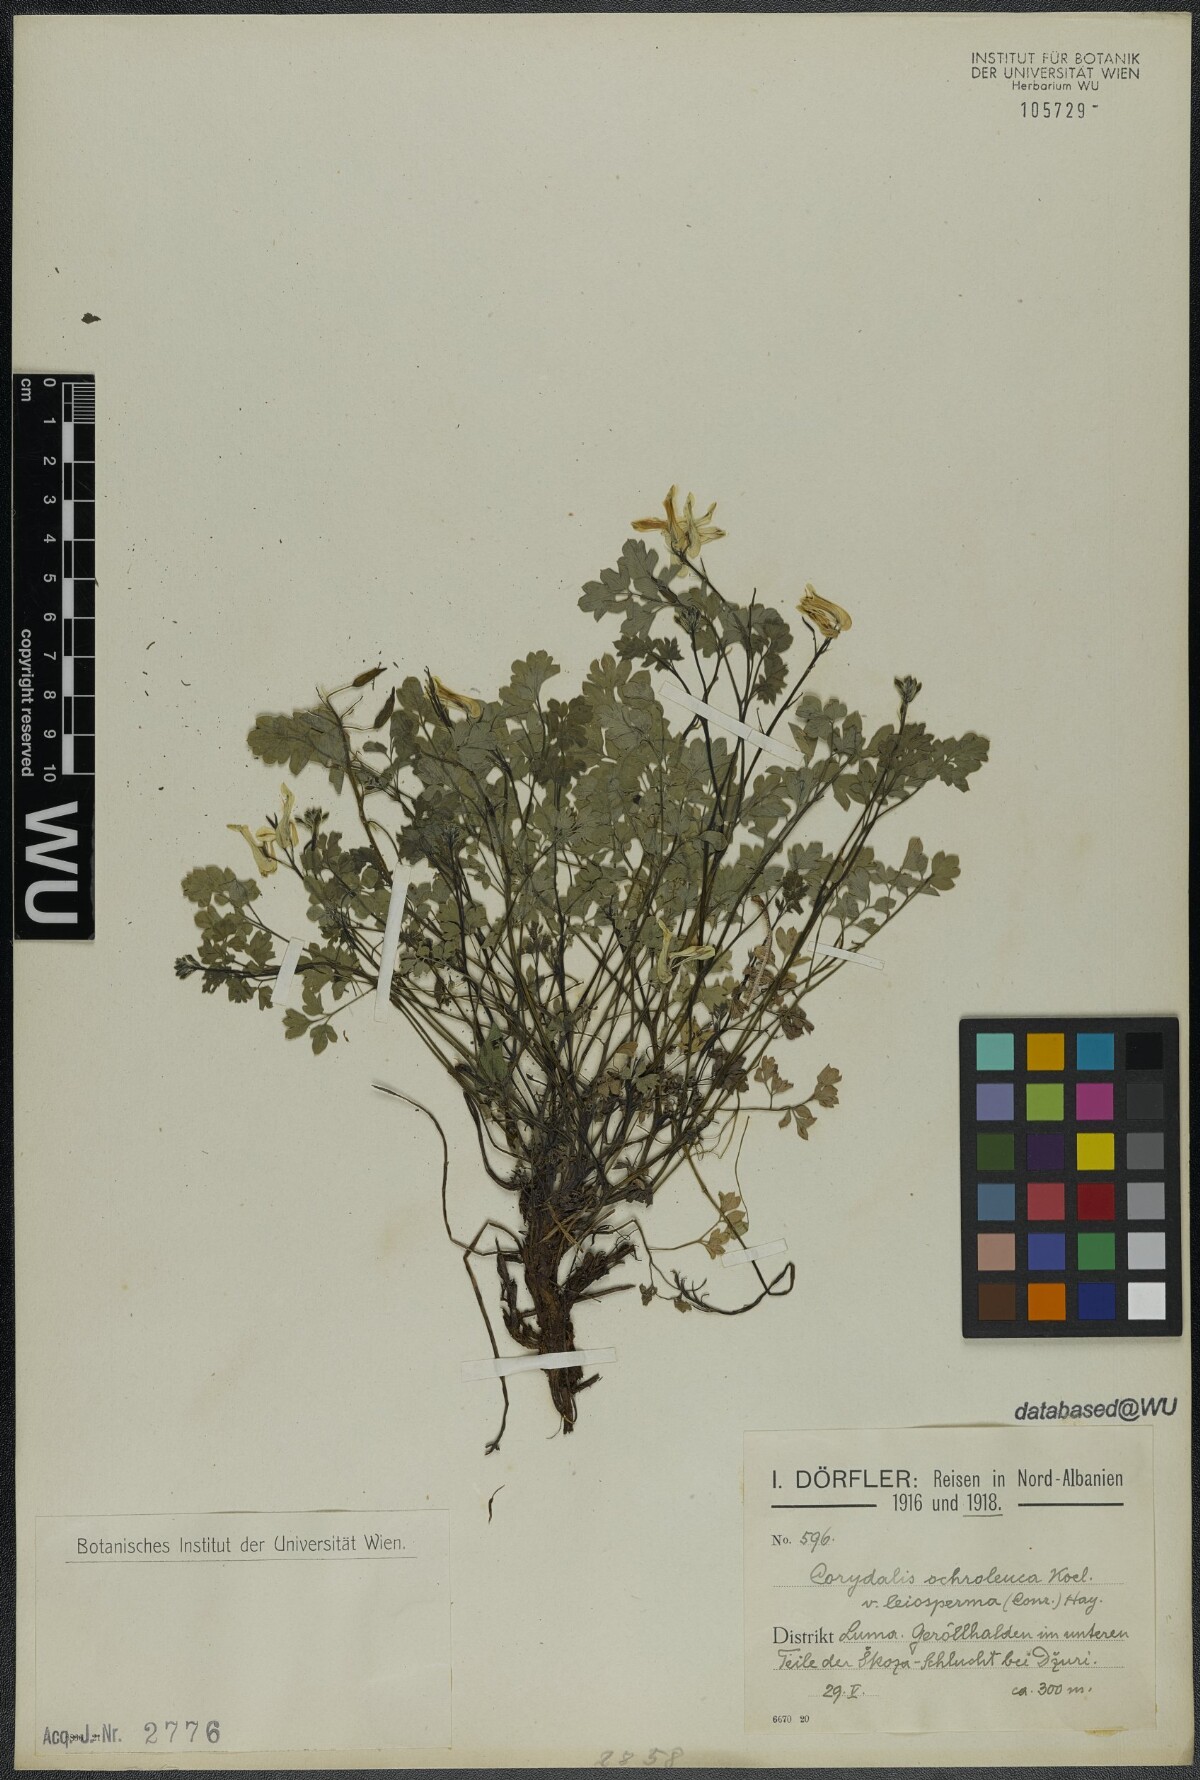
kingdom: Plantae
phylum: Tracheophyta
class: Magnoliopsida
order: Ranunculales
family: Papaveraceae
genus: Pseudofumaria
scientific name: Pseudofumaria alba
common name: Pale corydalis
